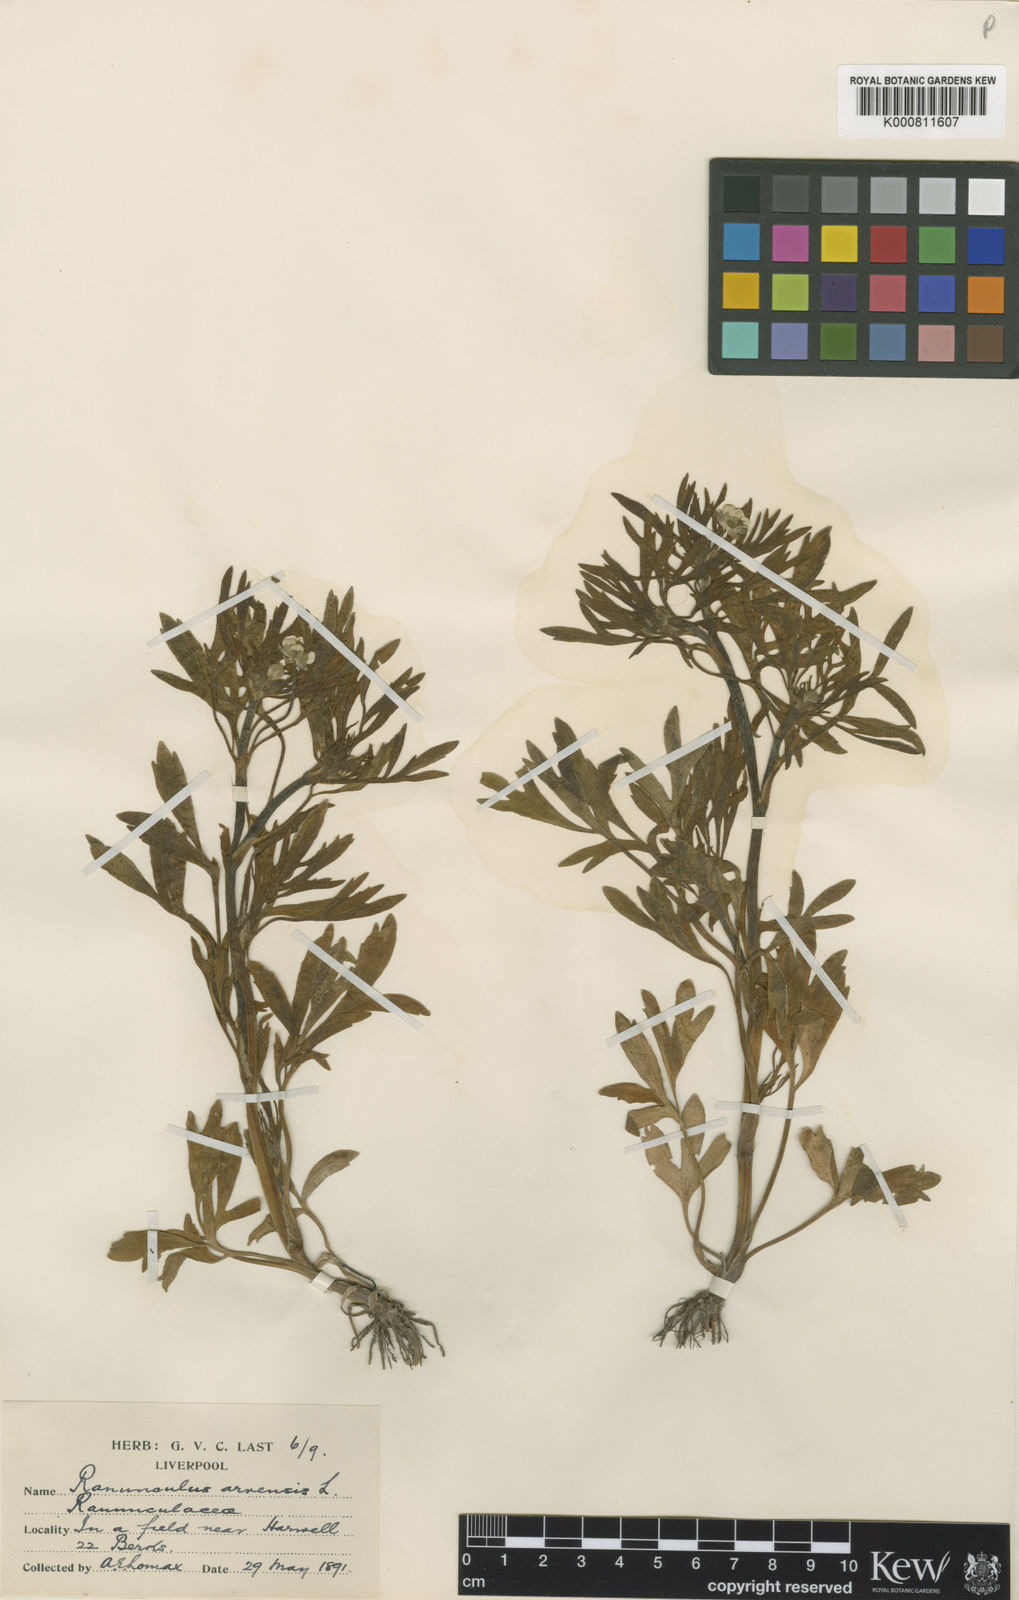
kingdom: Plantae
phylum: Tracheophyta
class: Magnoliopsida
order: Ranunculales
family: Ranunculaceae
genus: Ranunculus
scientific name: Ranunculus arvensis
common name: Corn buttercup
